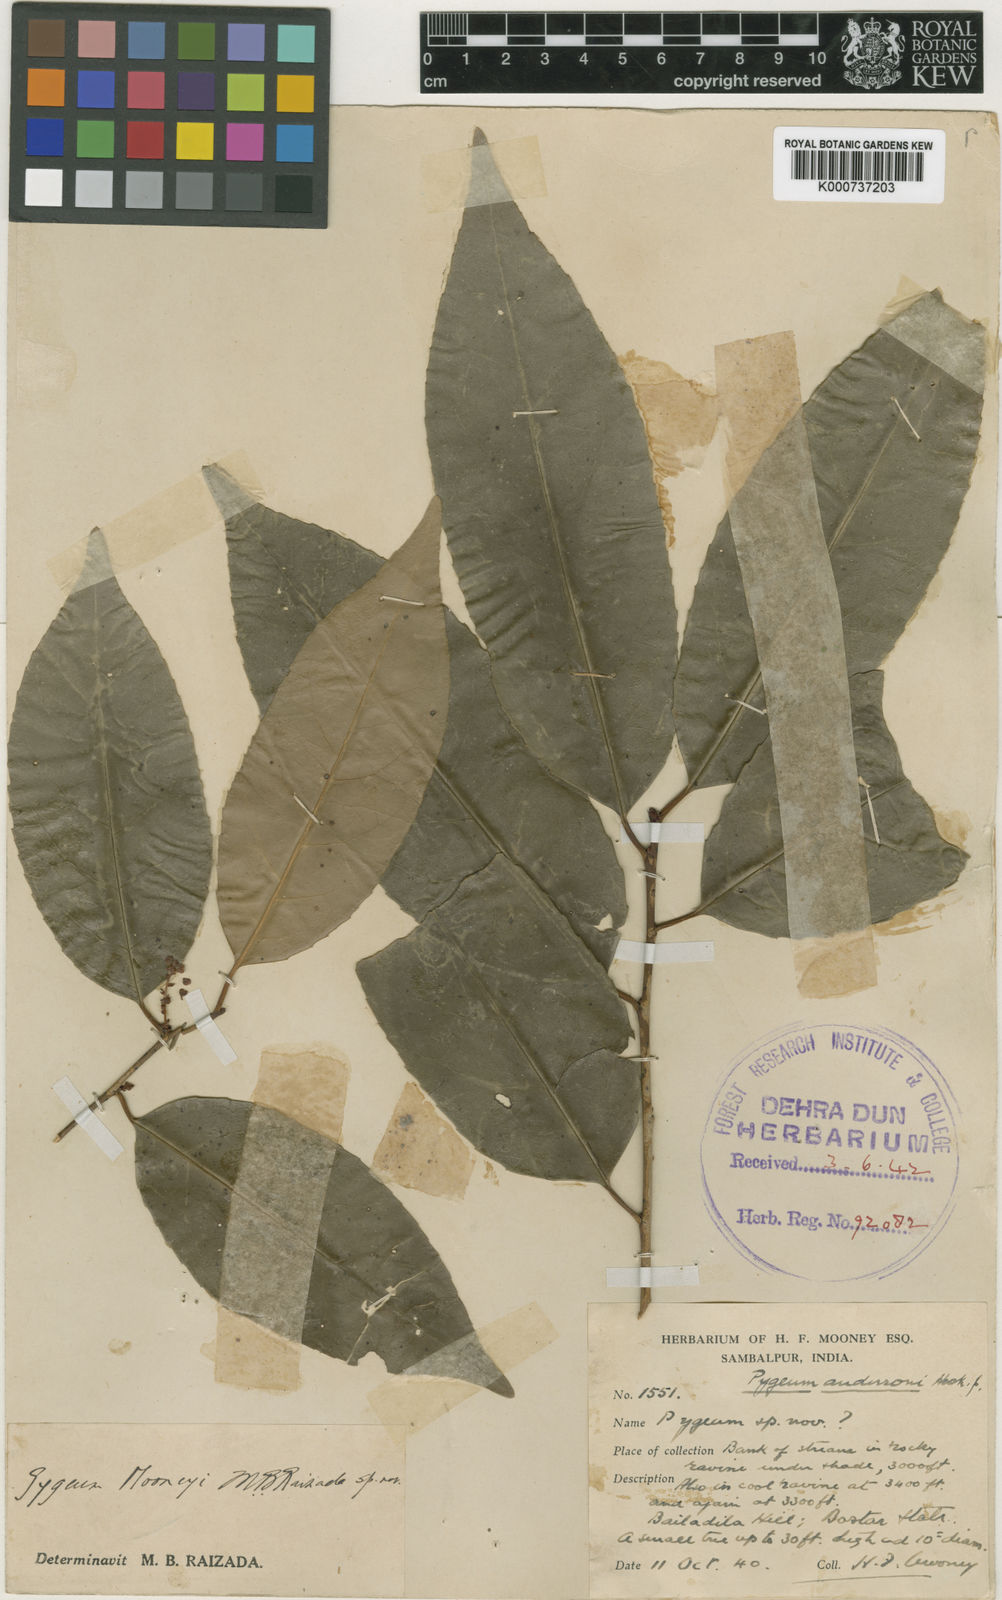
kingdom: Plantae
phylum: Tracheophyta
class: Magnoliopsida
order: Rosales
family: Rosaceae
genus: Prunus
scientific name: Prunus pygeoides
